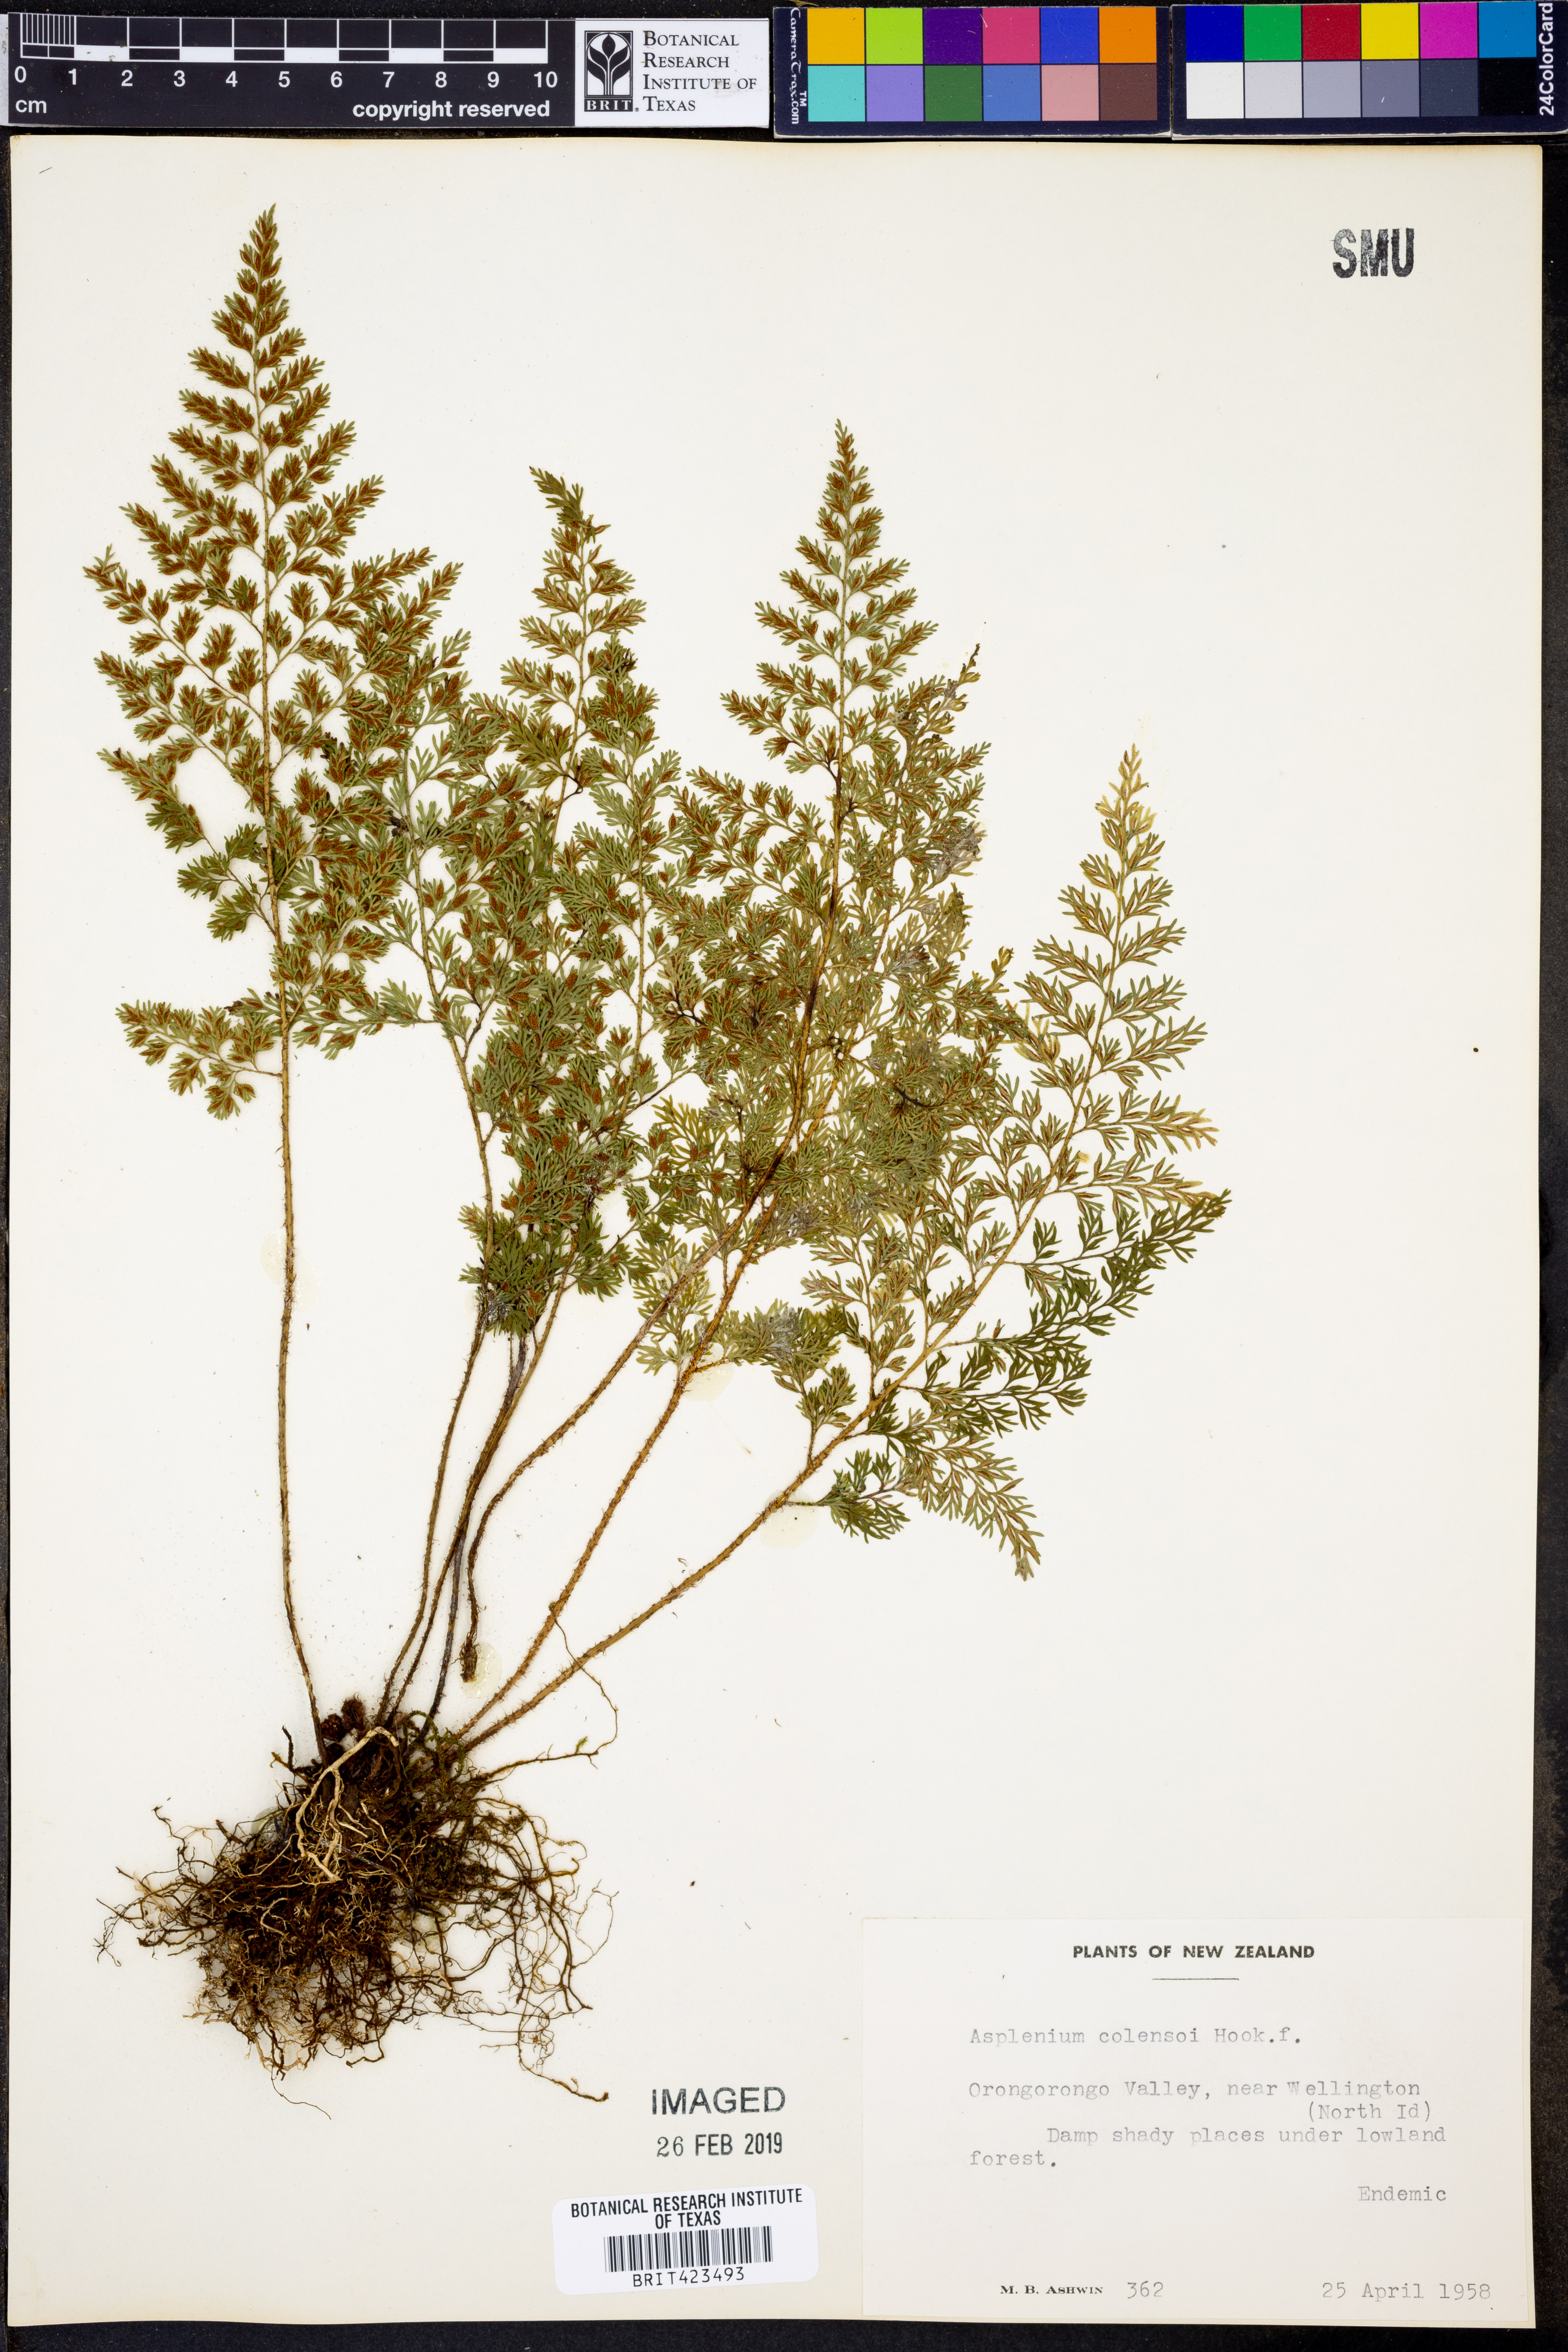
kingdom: Plantae
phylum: Tracheophyta
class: Polypodiopsida
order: Polypodiales
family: Aspleniaceae
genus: Asplenium
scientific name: Asplenium hookerianum
